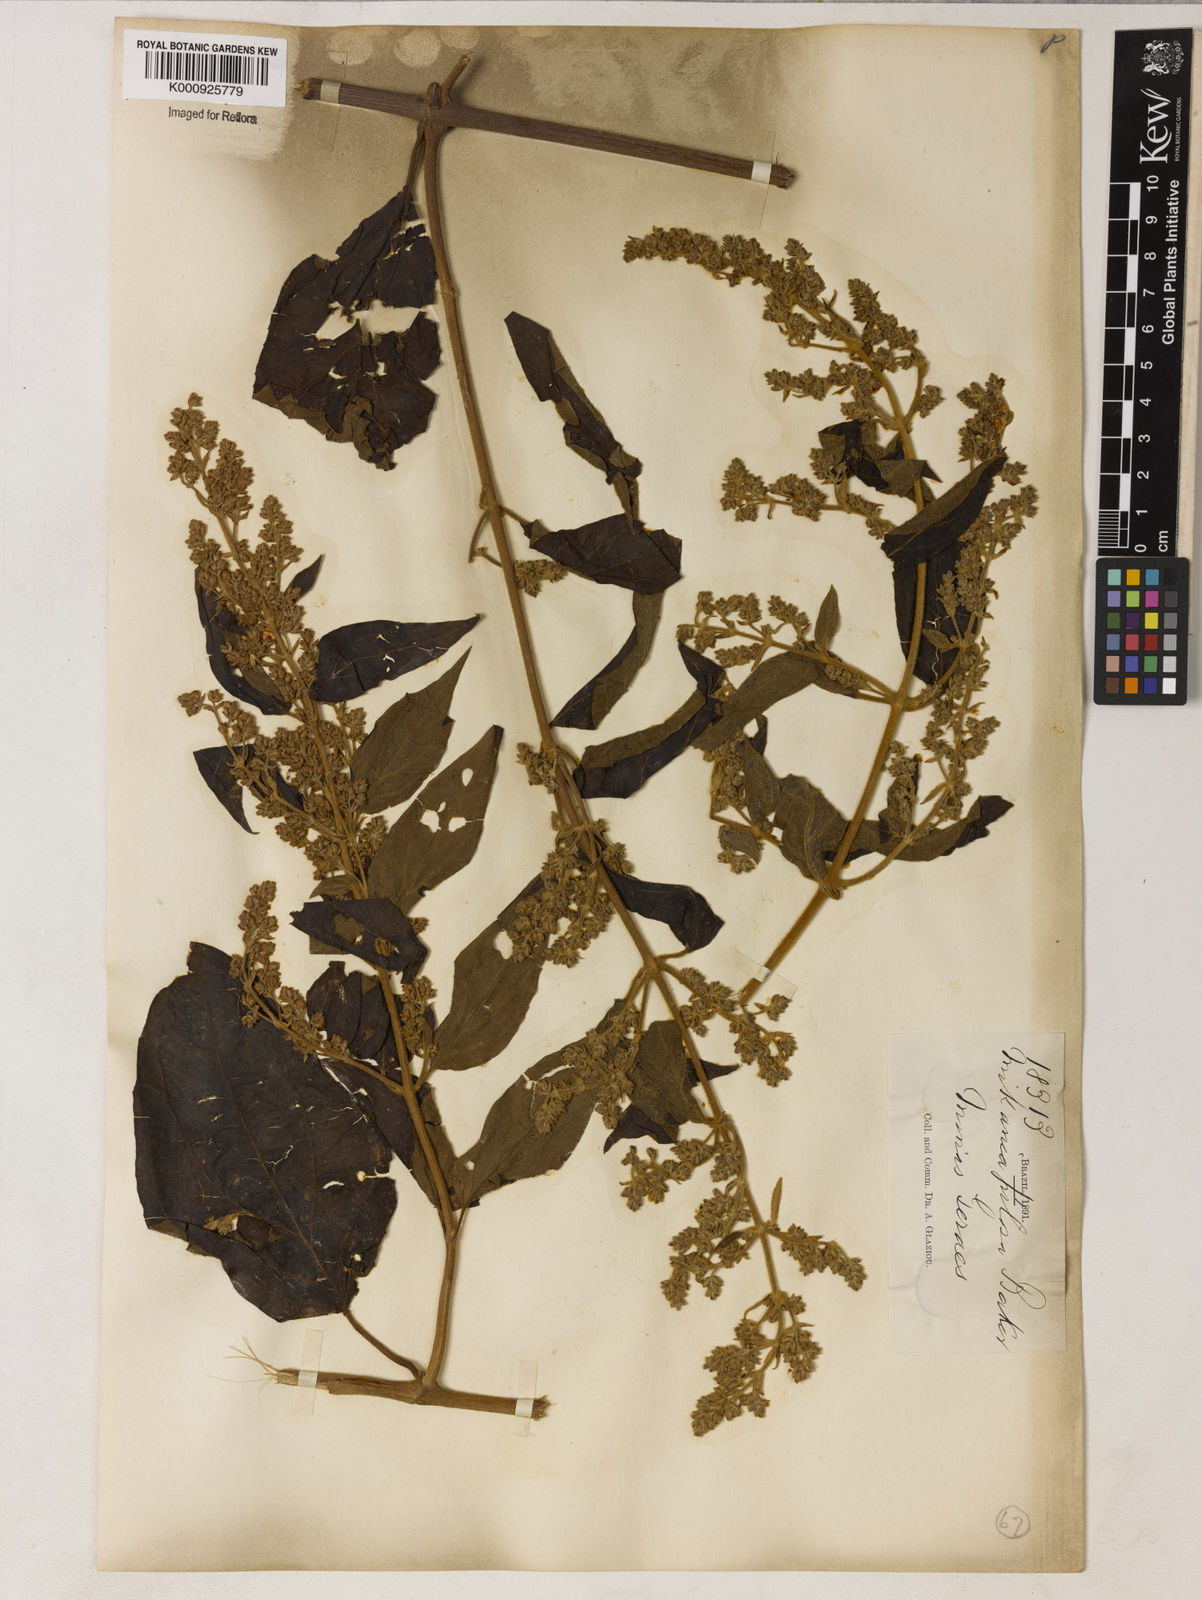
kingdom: Plantae
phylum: Tracheophyta
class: Magnoliopsida
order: Asterales
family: Asteraceae
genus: Mikania
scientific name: Mikania banisteriae
